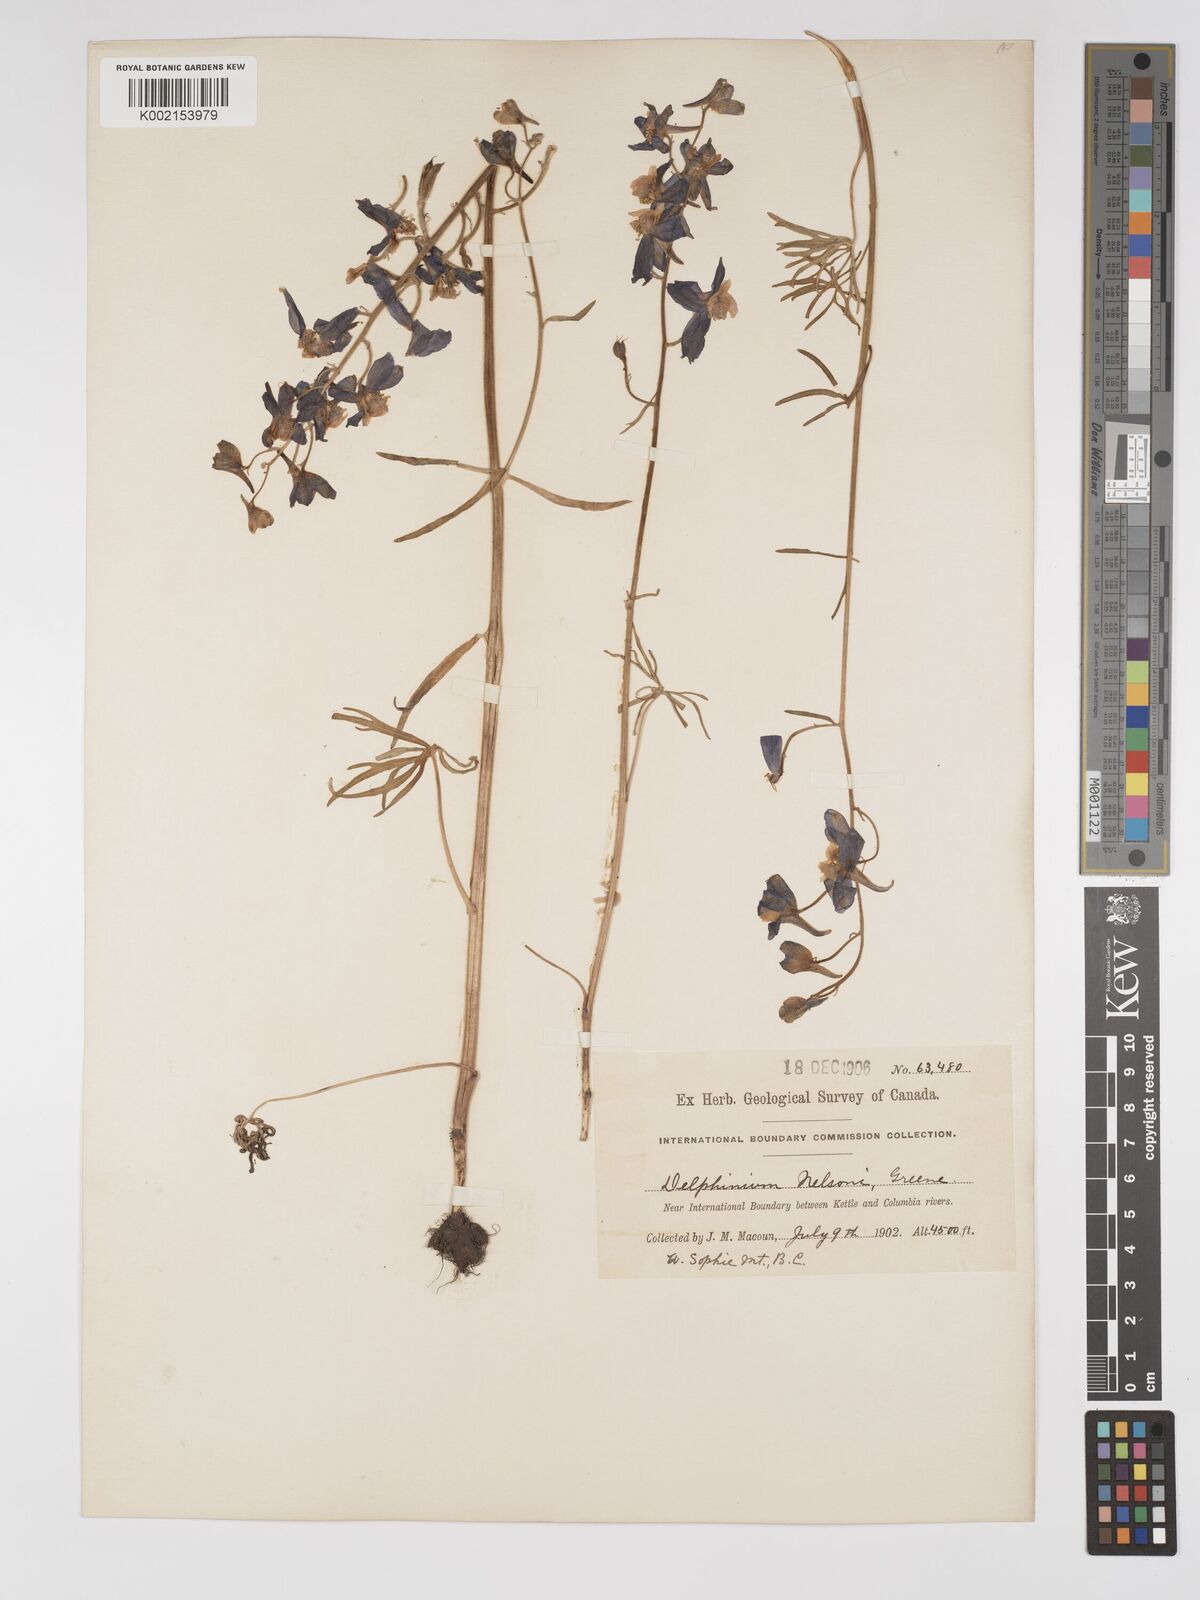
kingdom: Plantae
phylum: Tracheophyta
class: Magnoliopsida
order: Ranunculales
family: Ranunculaceae
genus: Delphinium
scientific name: Delphinium nuttallianum
